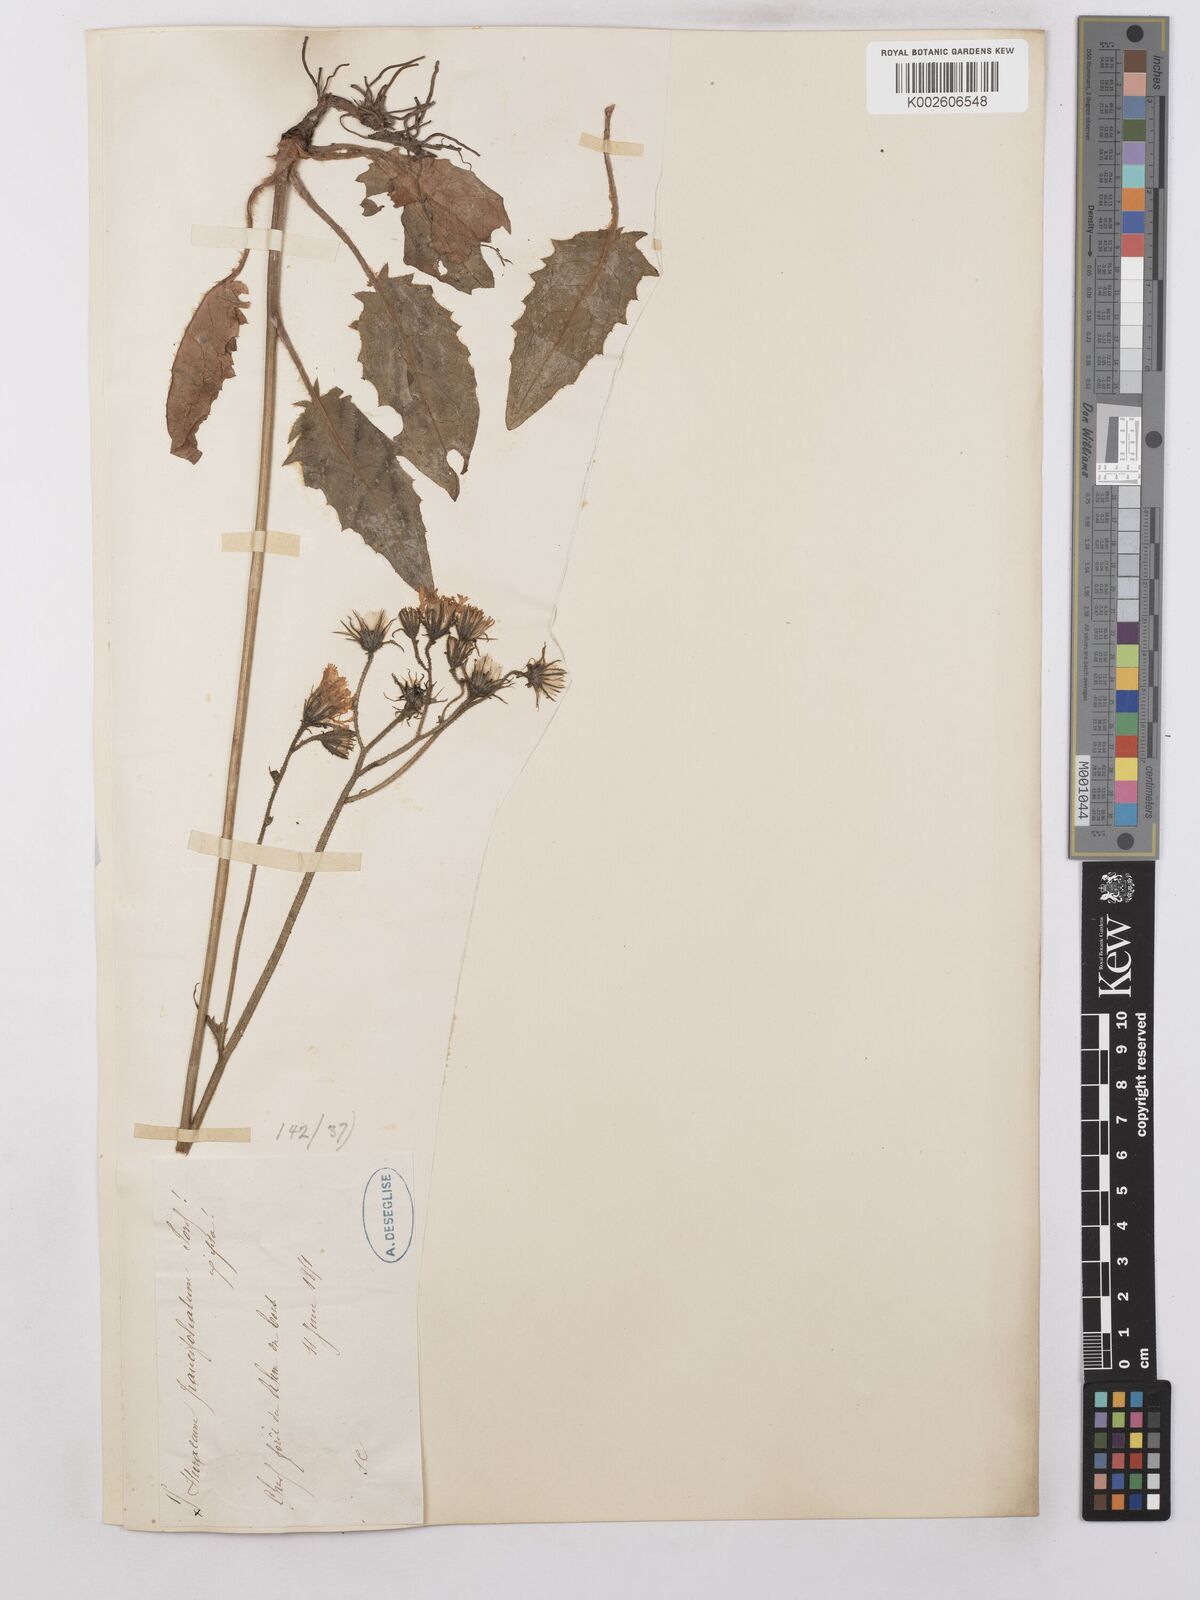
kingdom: Plantae
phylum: Tracheophyta
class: Magnoliopsida
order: Asterales
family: Asteraceae
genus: Hieracium
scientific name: Hieracium lachenalii
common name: Common hawkweed
